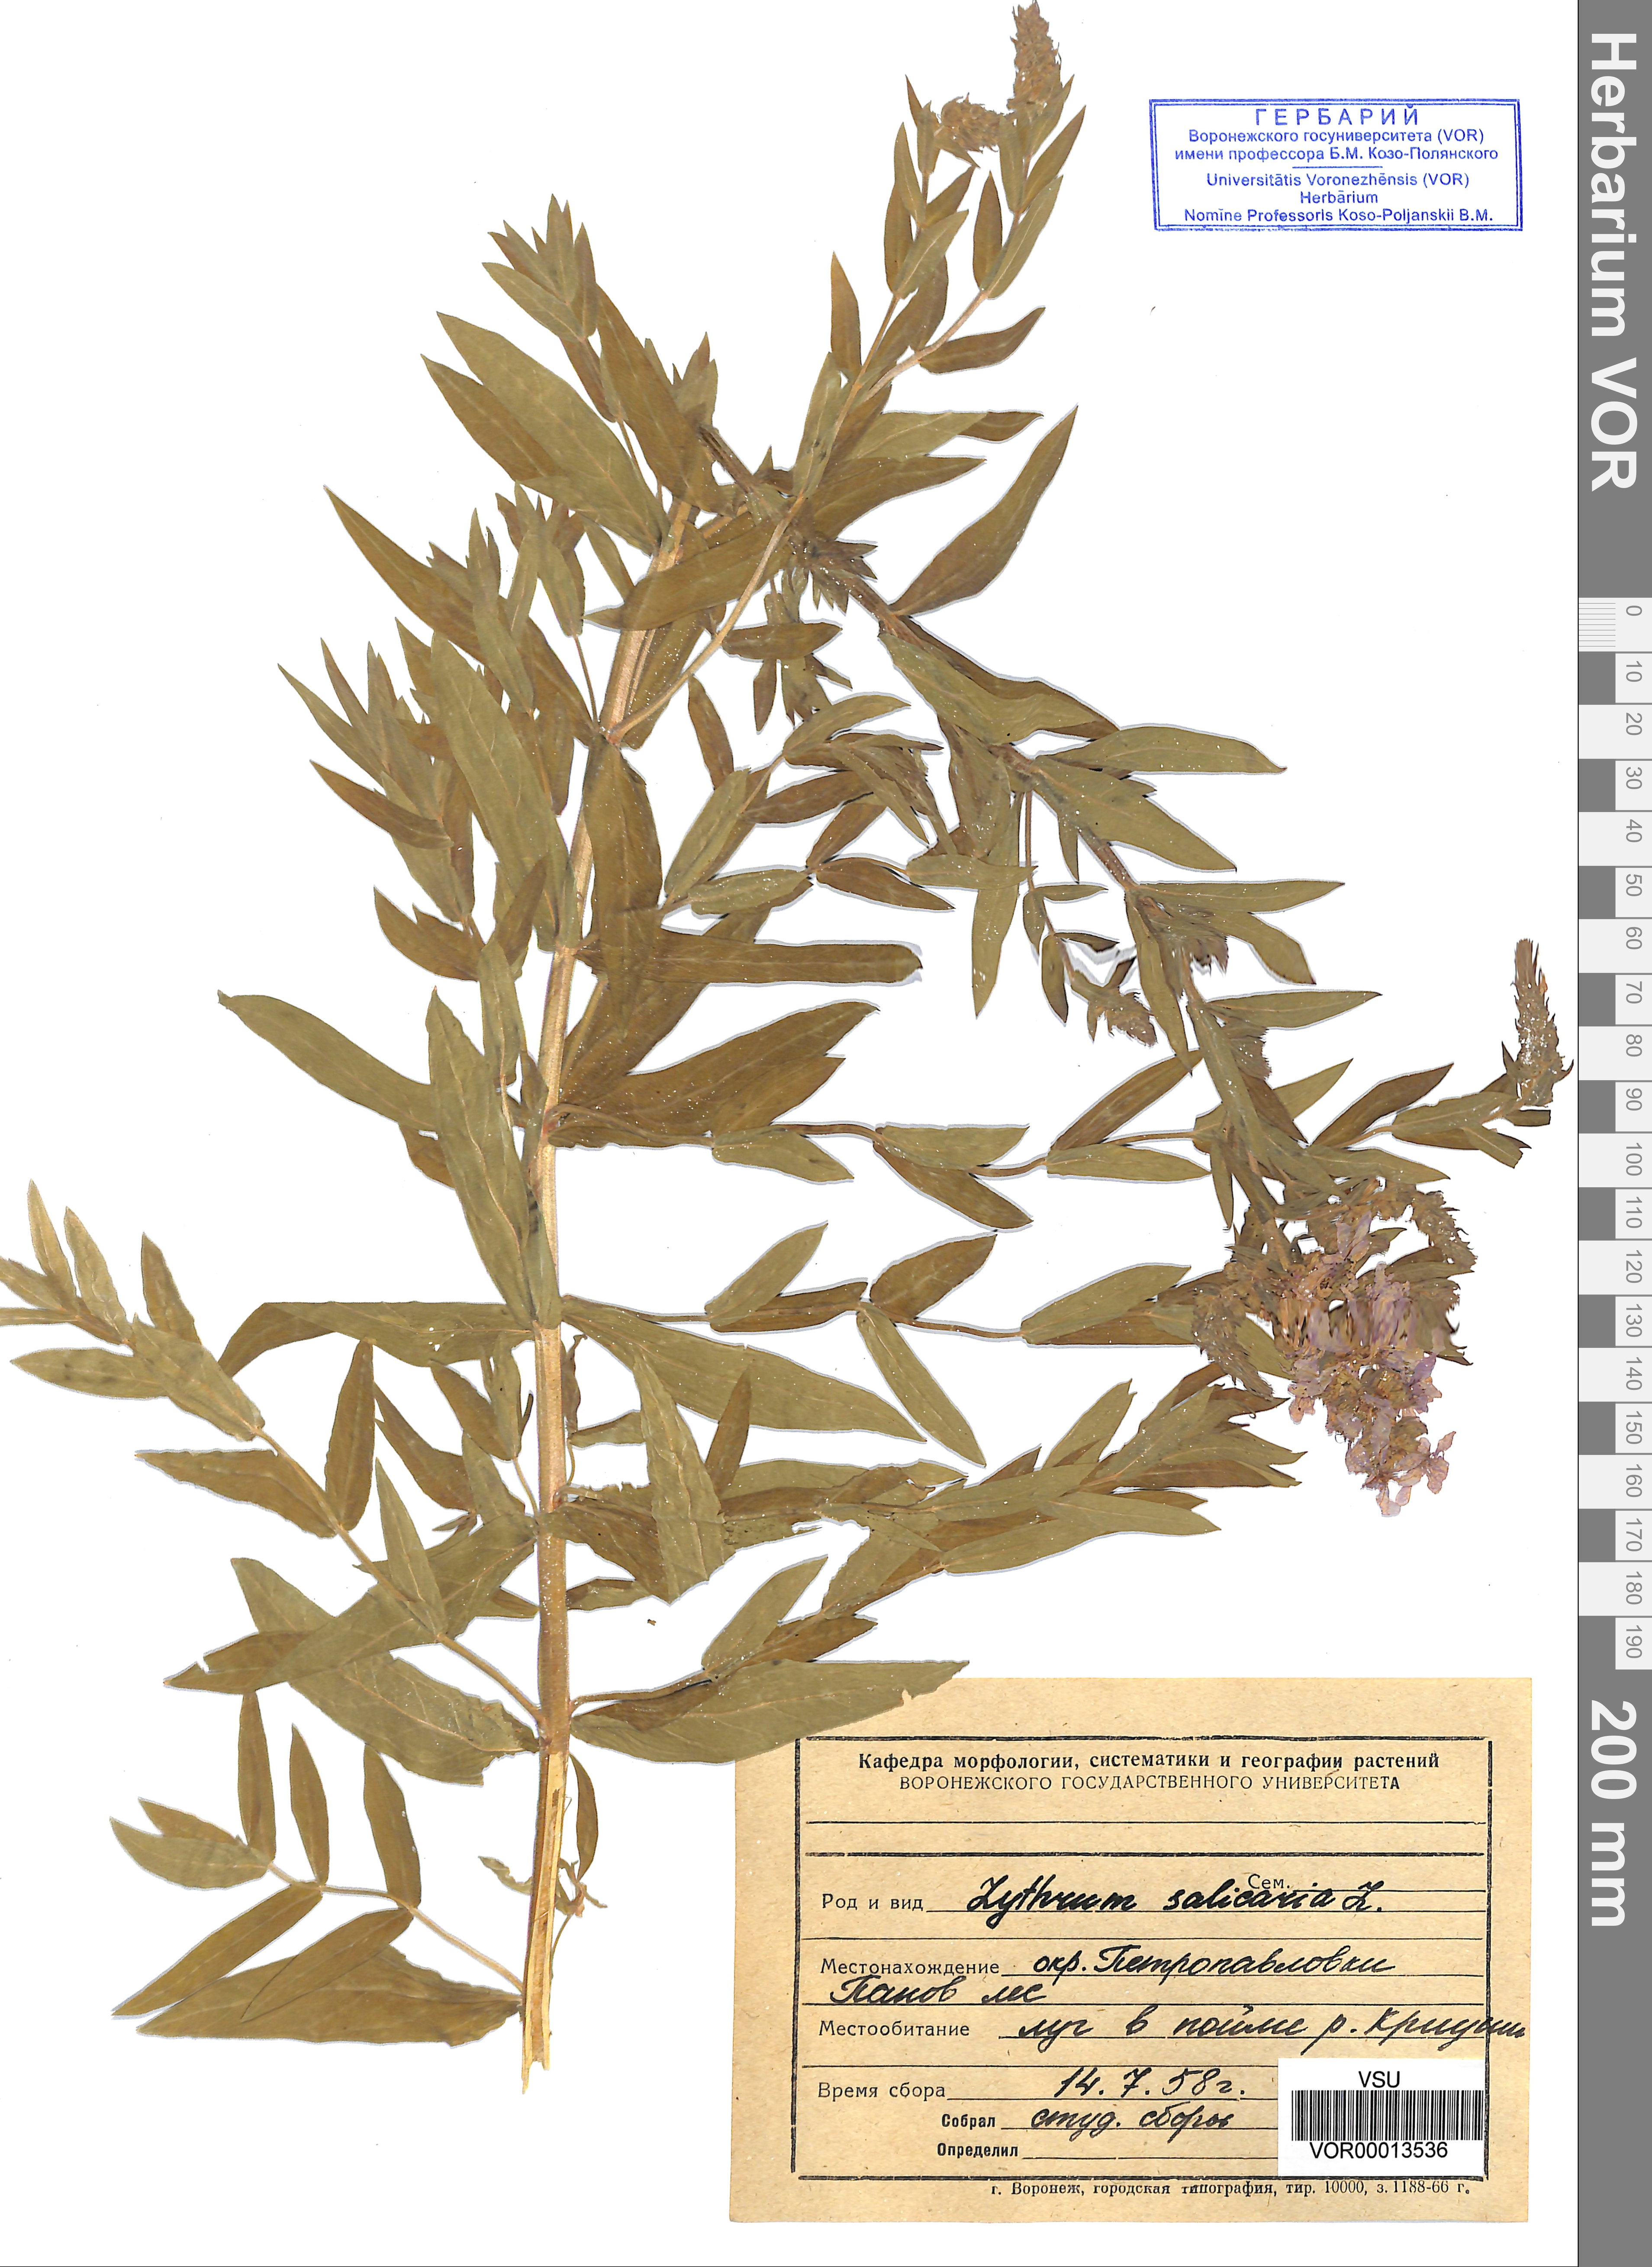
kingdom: Plantae
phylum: Tracheophyta
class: Magnoliopsida
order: Myrtales
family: Lythraceae
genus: Lythrum
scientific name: Lythrum salicaria
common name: Purple loosestrife
